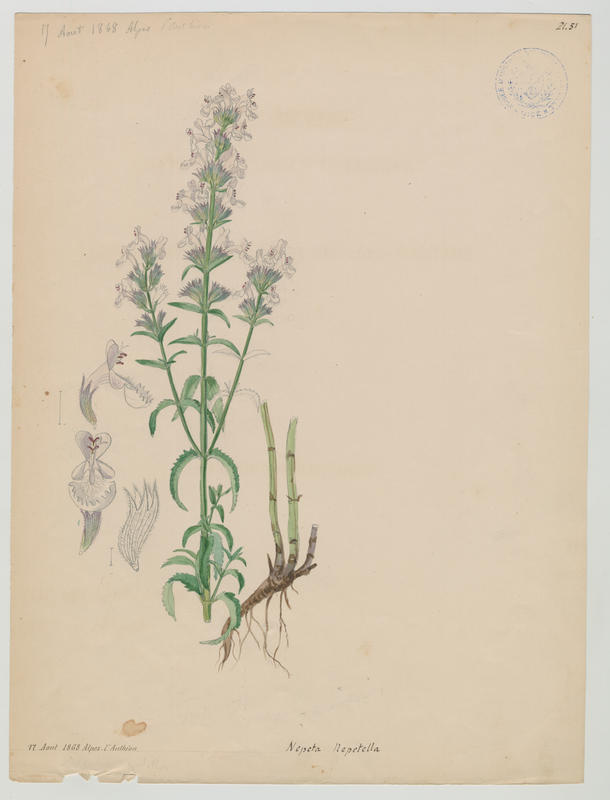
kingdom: Plantae
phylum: Tracheophyta
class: Magnoliopsida
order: Lamiales
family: Lamiaceae
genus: Nepeta
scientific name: Nepeta nepetella
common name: Lesser catmint
